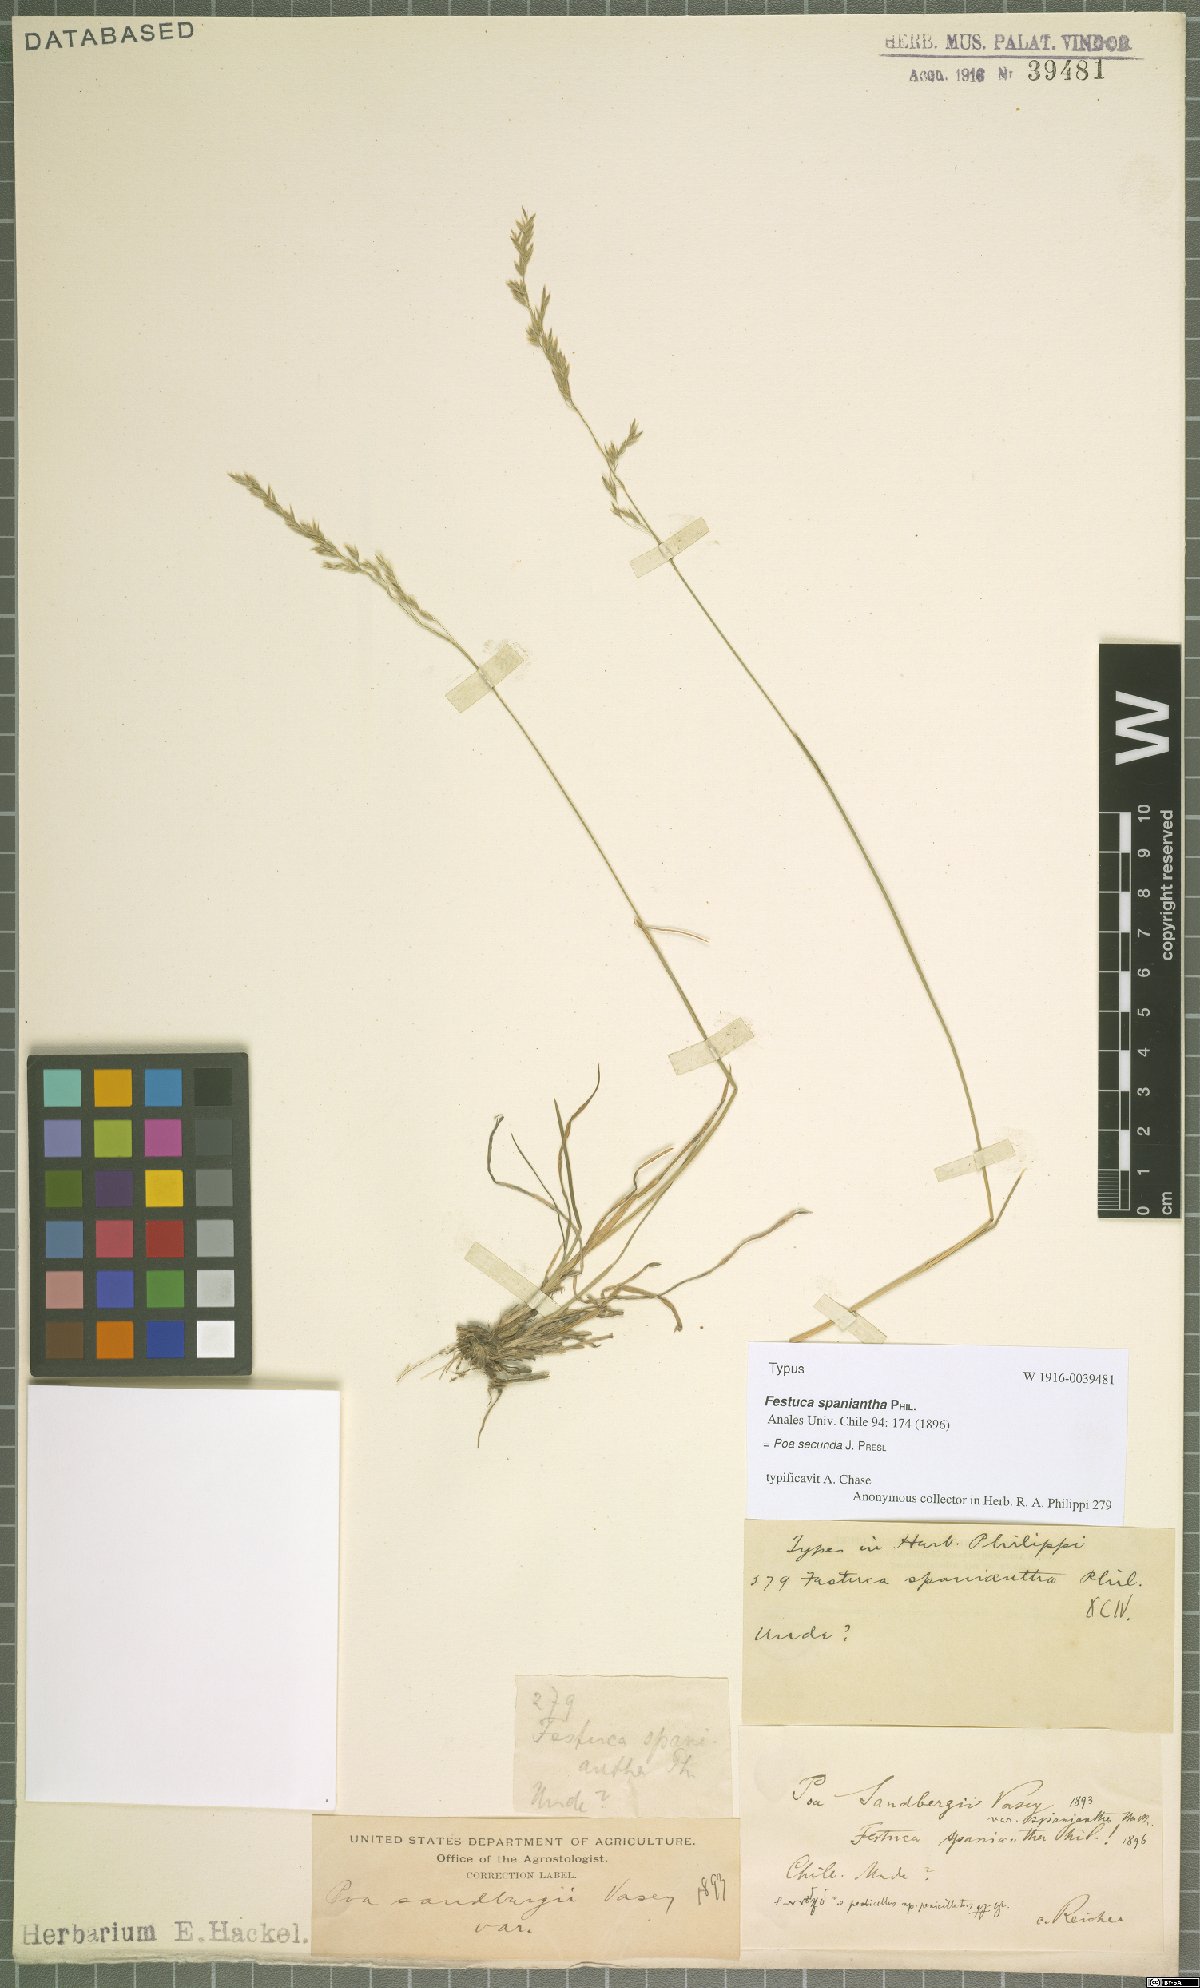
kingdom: Plantae
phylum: Tracheophyta
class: Liliopsida
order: Poales
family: Poaceae
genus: Poa
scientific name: Poa secunda
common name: Sandberg bluegrass
